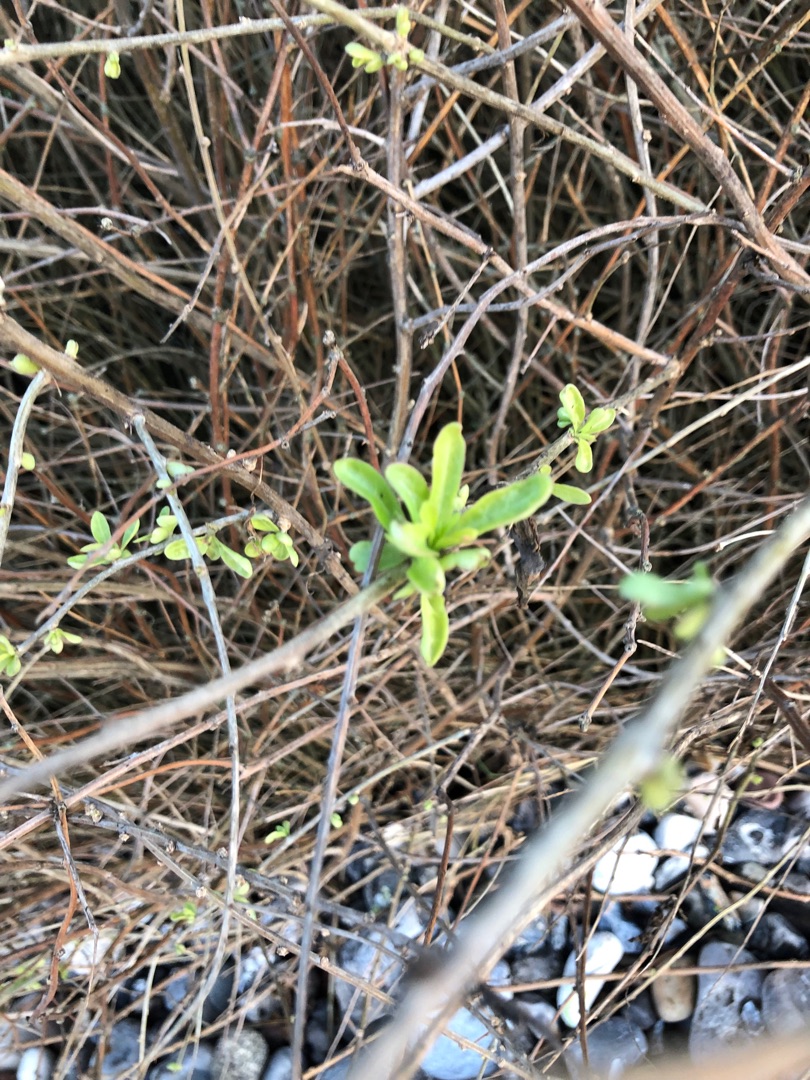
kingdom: Plantae
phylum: Tracheophyta
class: Magnoliopsida
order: Solanales
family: Solanaceae
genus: Lycium
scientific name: Lycium barbarum
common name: Bukketorn
